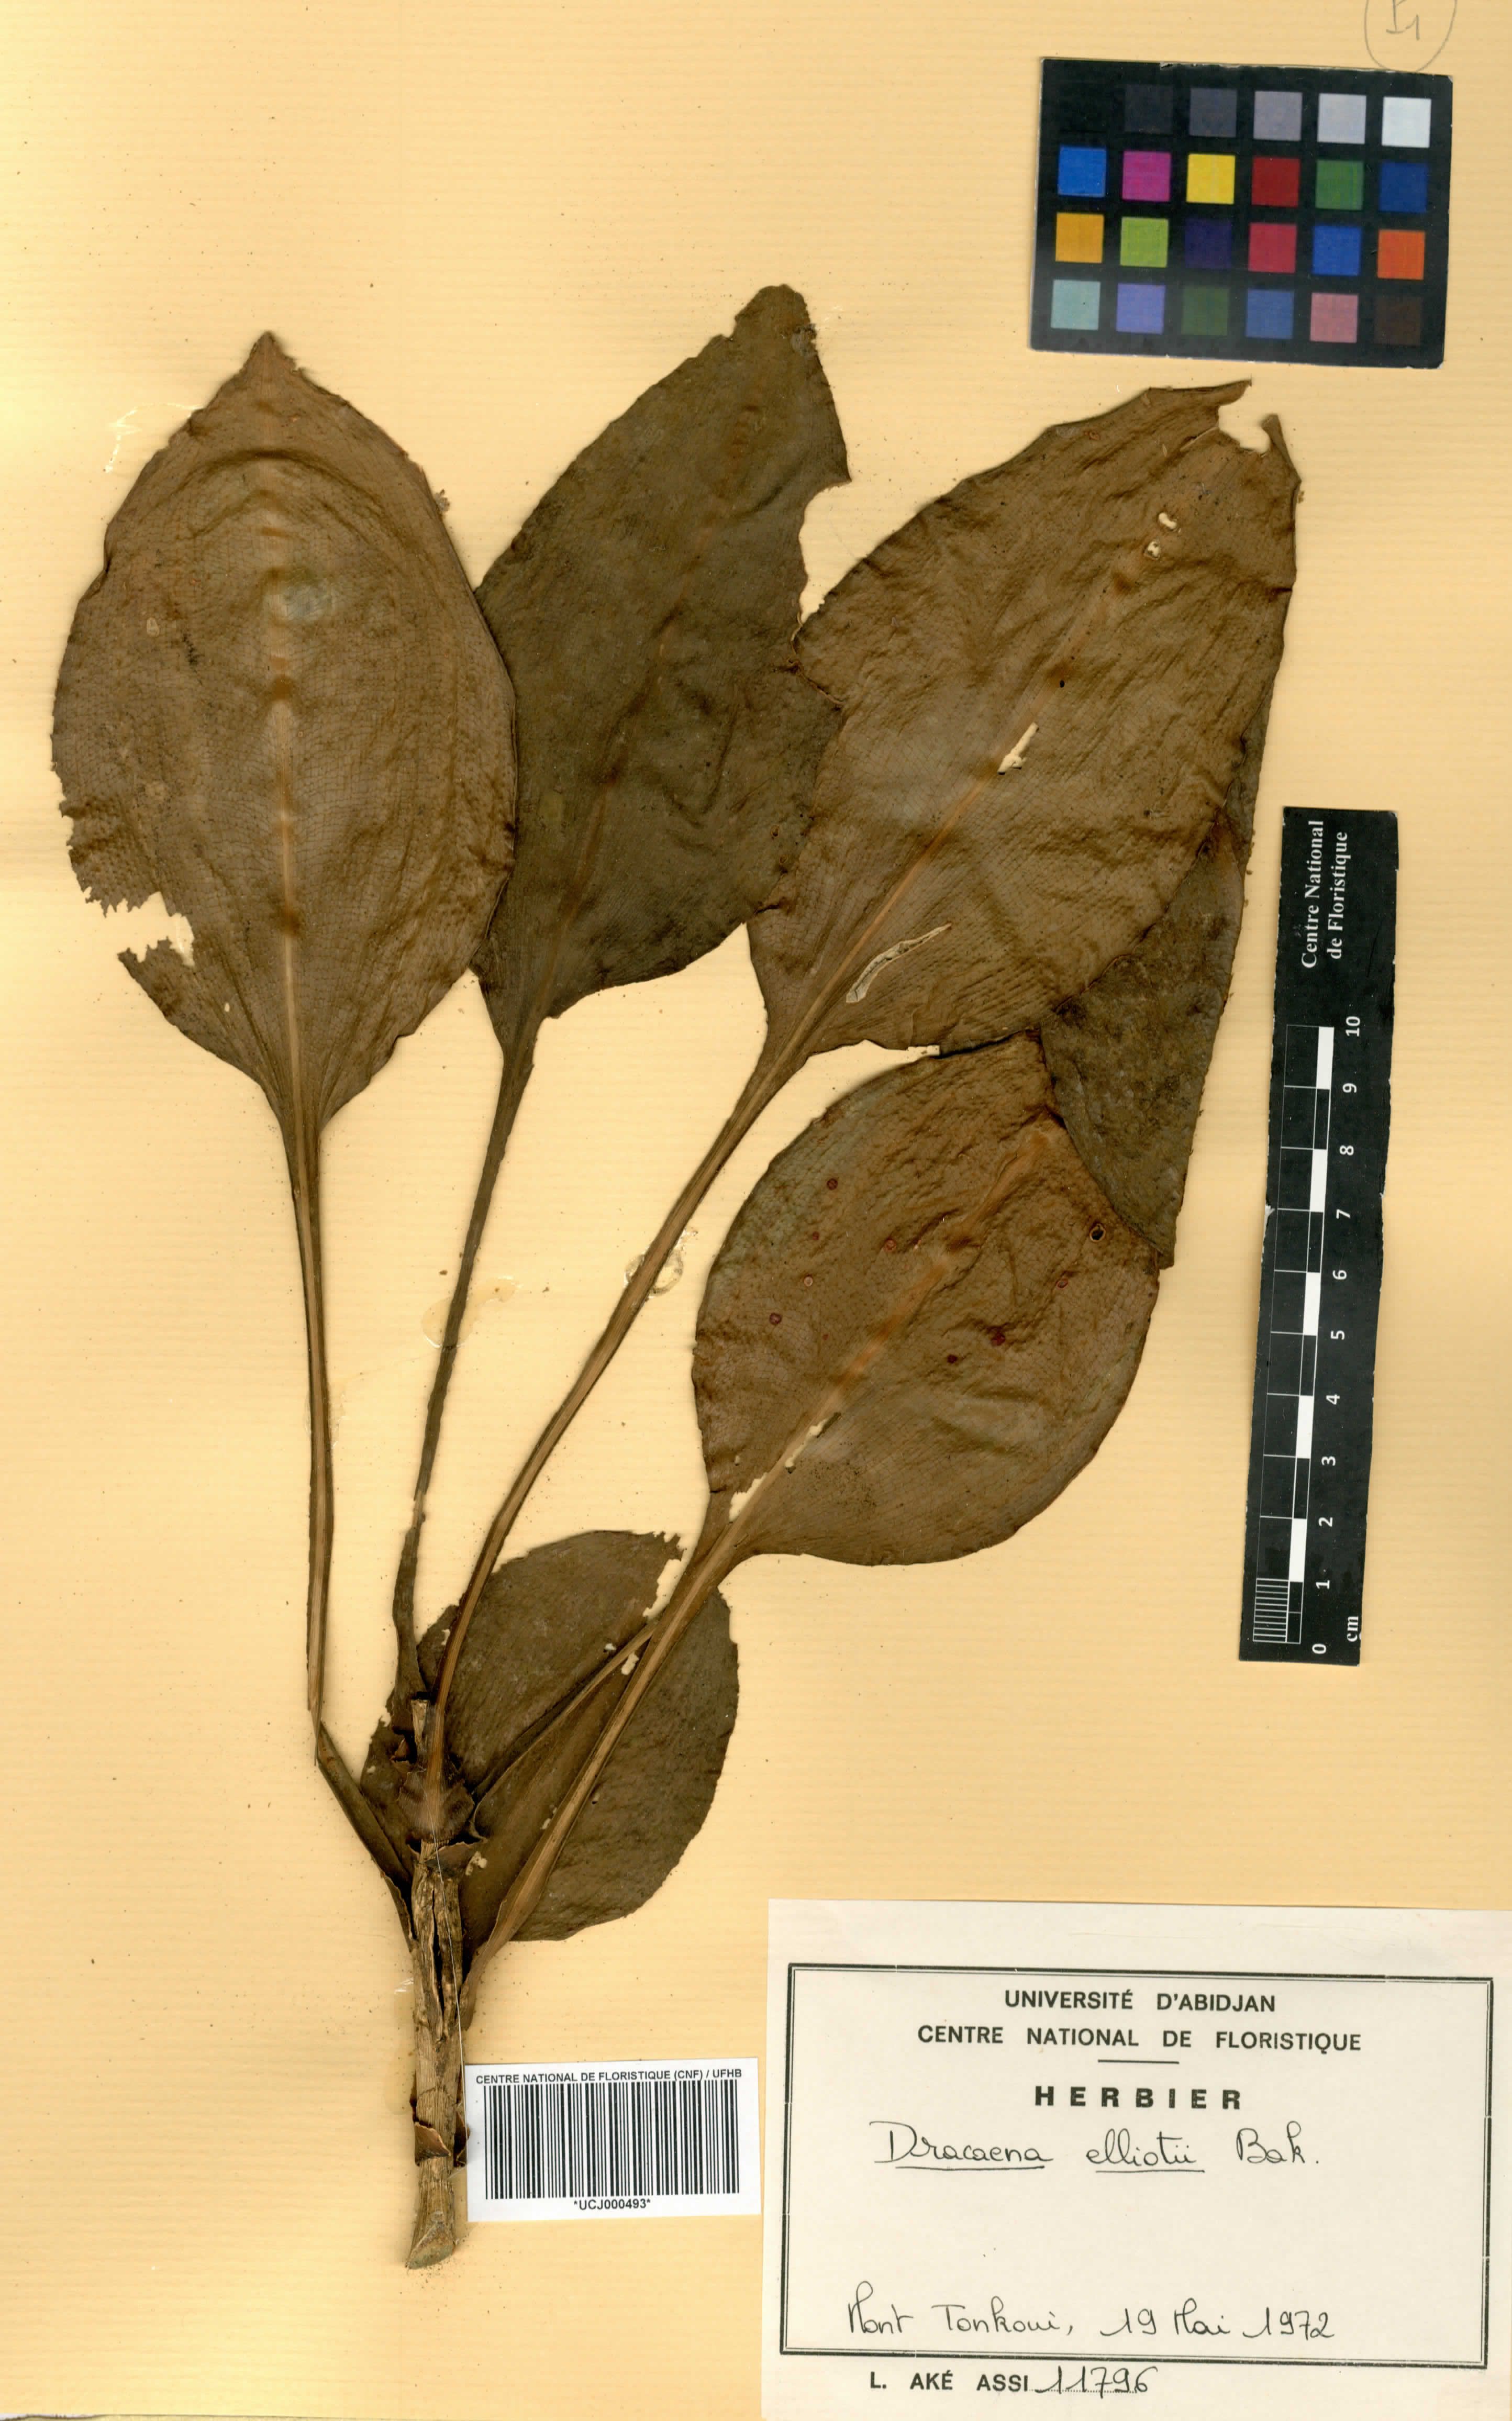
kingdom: Plantae
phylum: Tracheophyta
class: Liliopsida
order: Asparagales
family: Asparagaceae
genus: Dracaena
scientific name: Dracaena cristula
